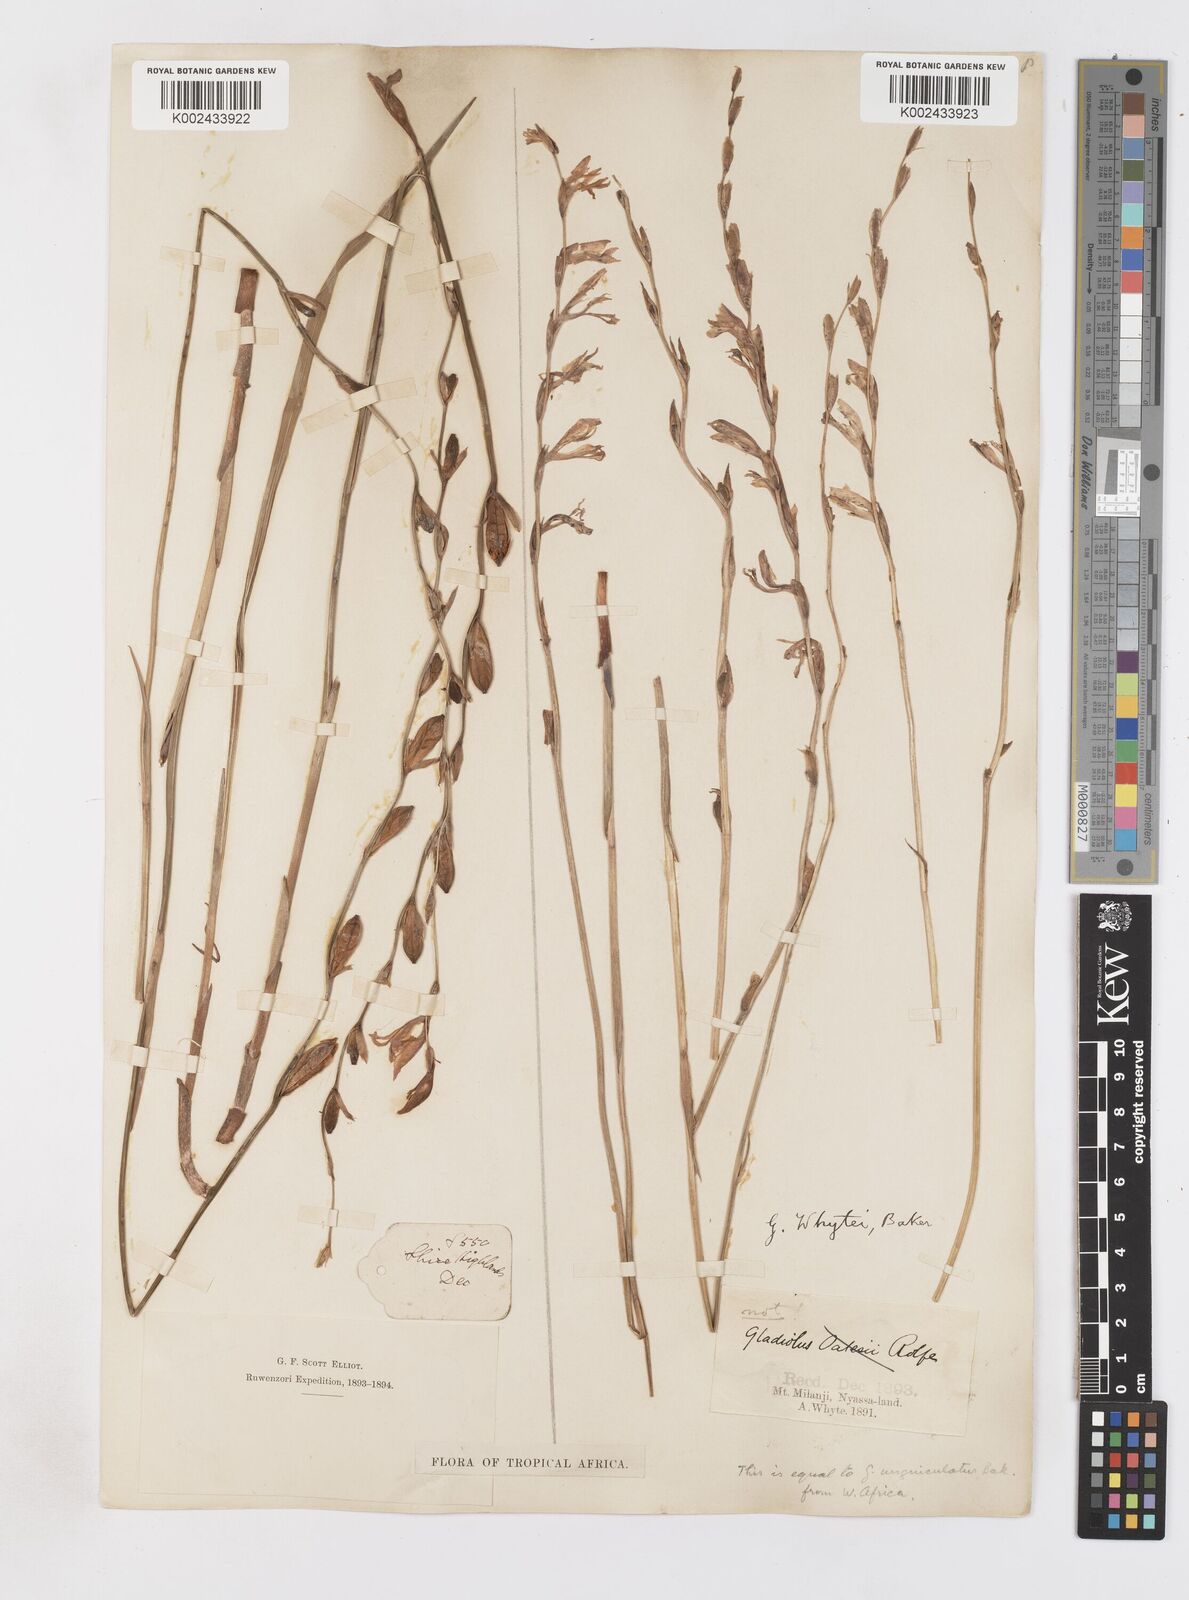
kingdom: Plantae
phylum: Tracheophyta
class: Liliopsida
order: Asparagales
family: Iridaceae
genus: Gladiolus
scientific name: Gladiolus atropurpureus
